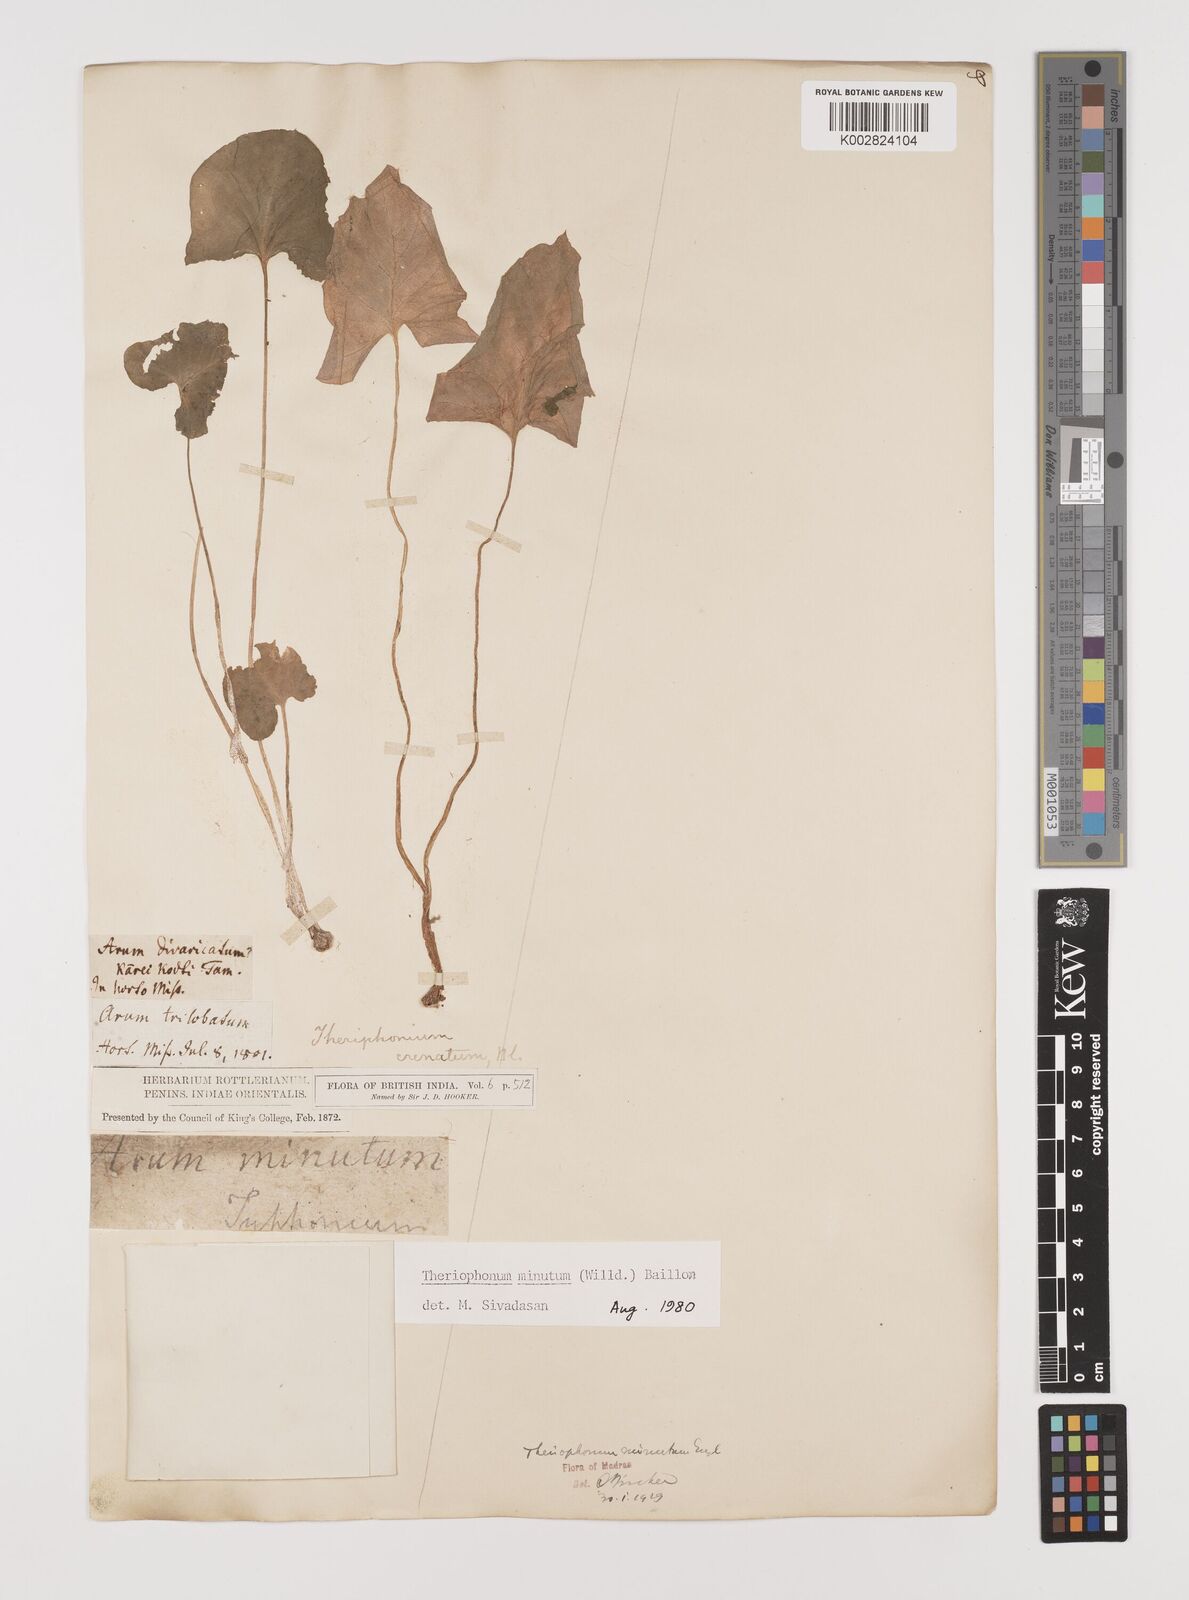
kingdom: Plantae
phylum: Tracheophyta
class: Liliopsida
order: Alismatales
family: Araceae
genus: Theriophonum
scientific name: Theriophonum minutum
